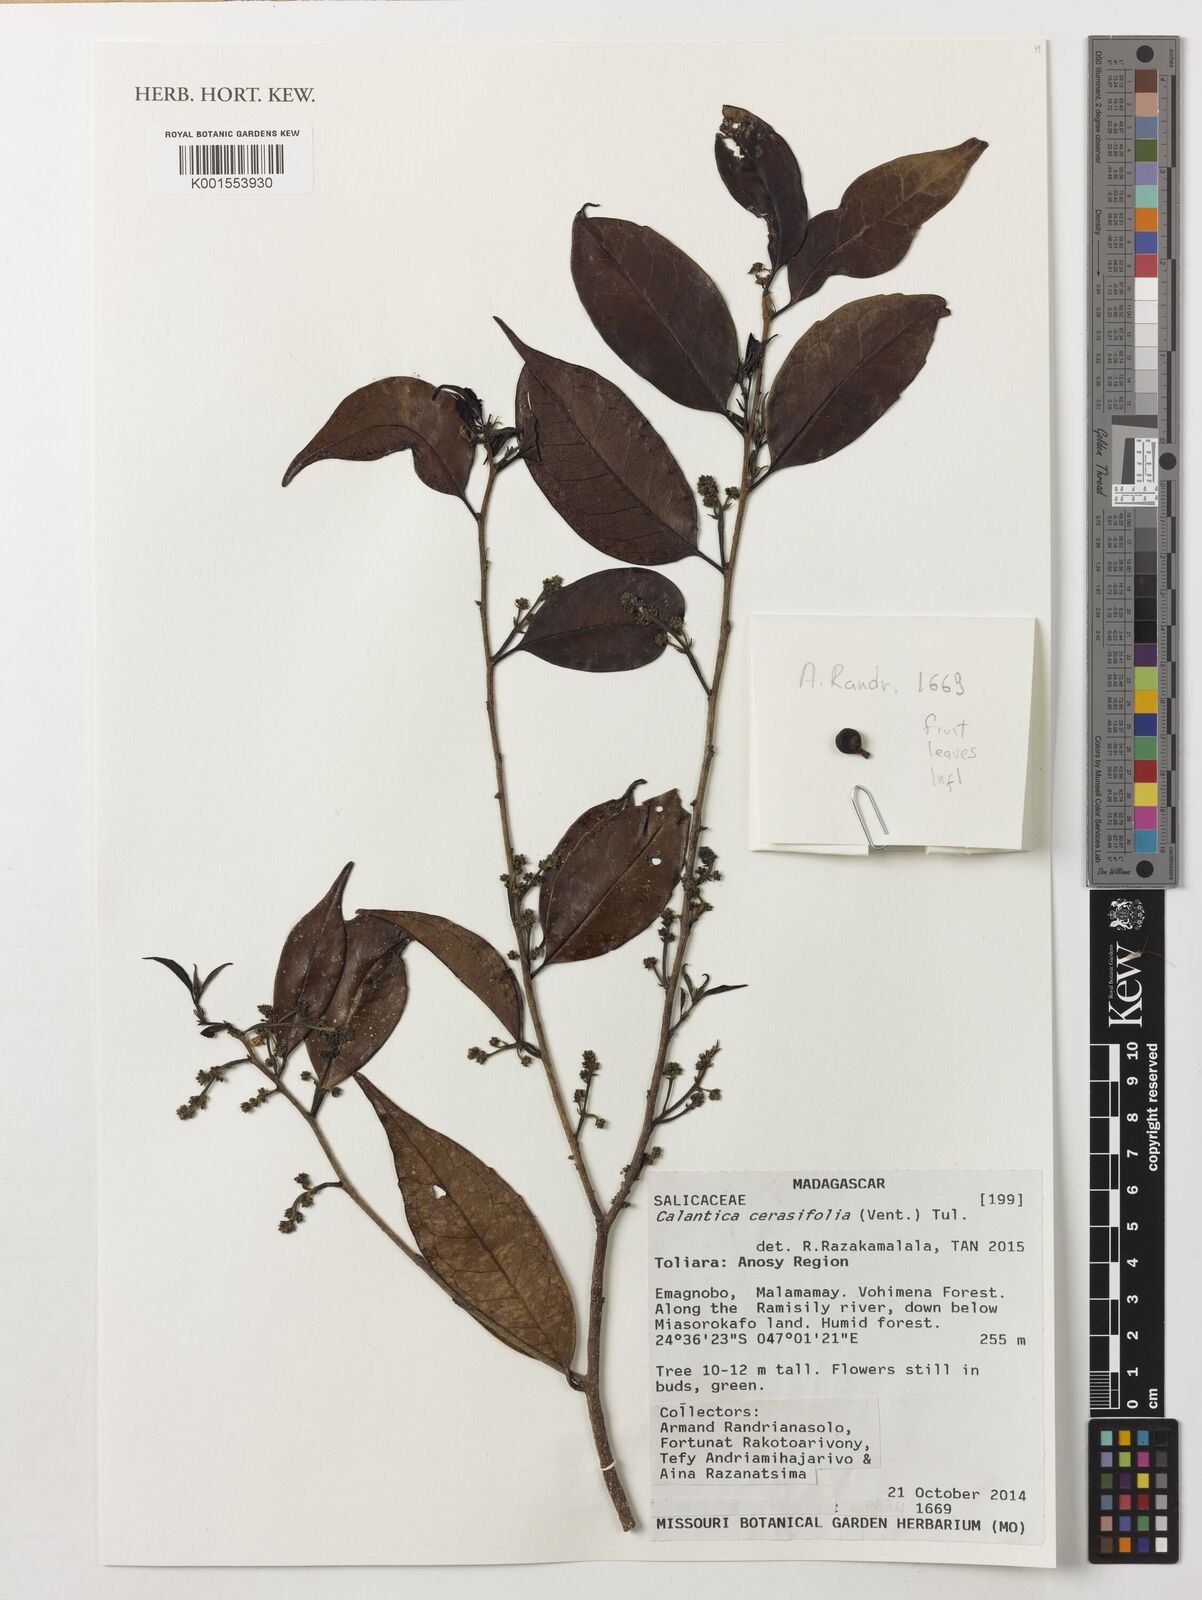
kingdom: Plantae
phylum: Tracheophyta
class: Magnoliopsida
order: Malpighiales
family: Salicaceae
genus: Calantica
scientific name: Calantica cerasifolia
